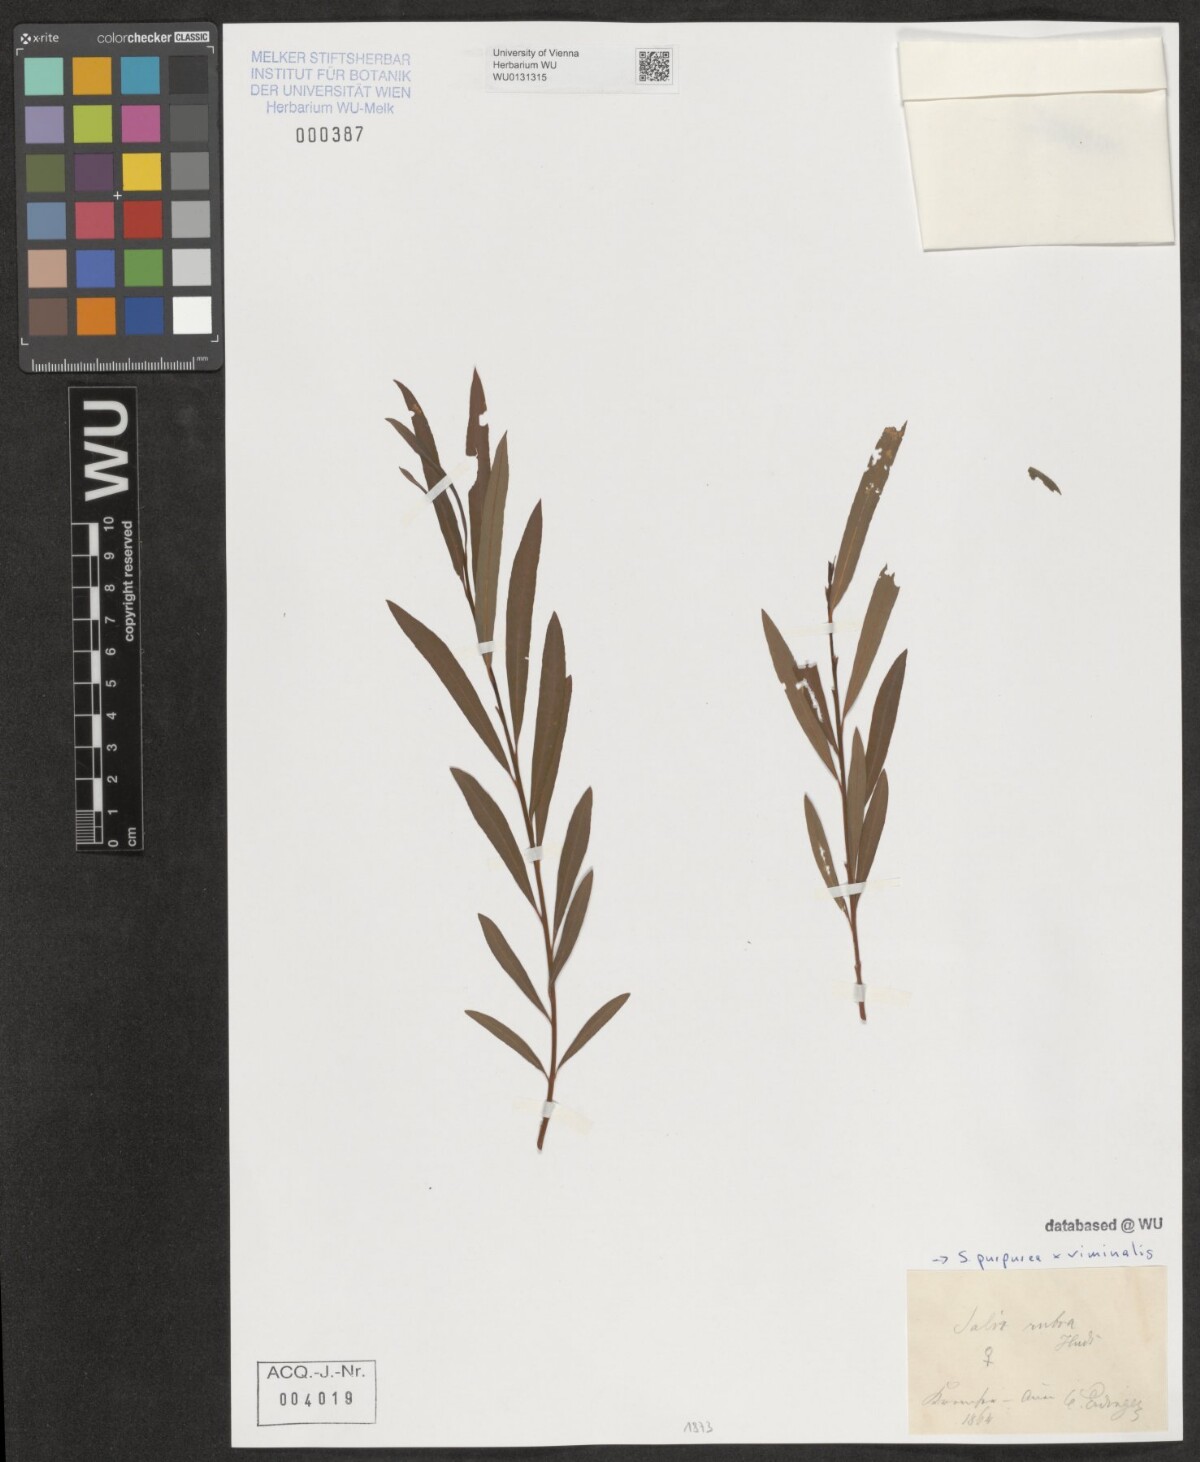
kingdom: Plantae
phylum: Tracheophyta
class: Magnoliopsida
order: Malpighiales
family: Salicaceae
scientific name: Salicaceae
